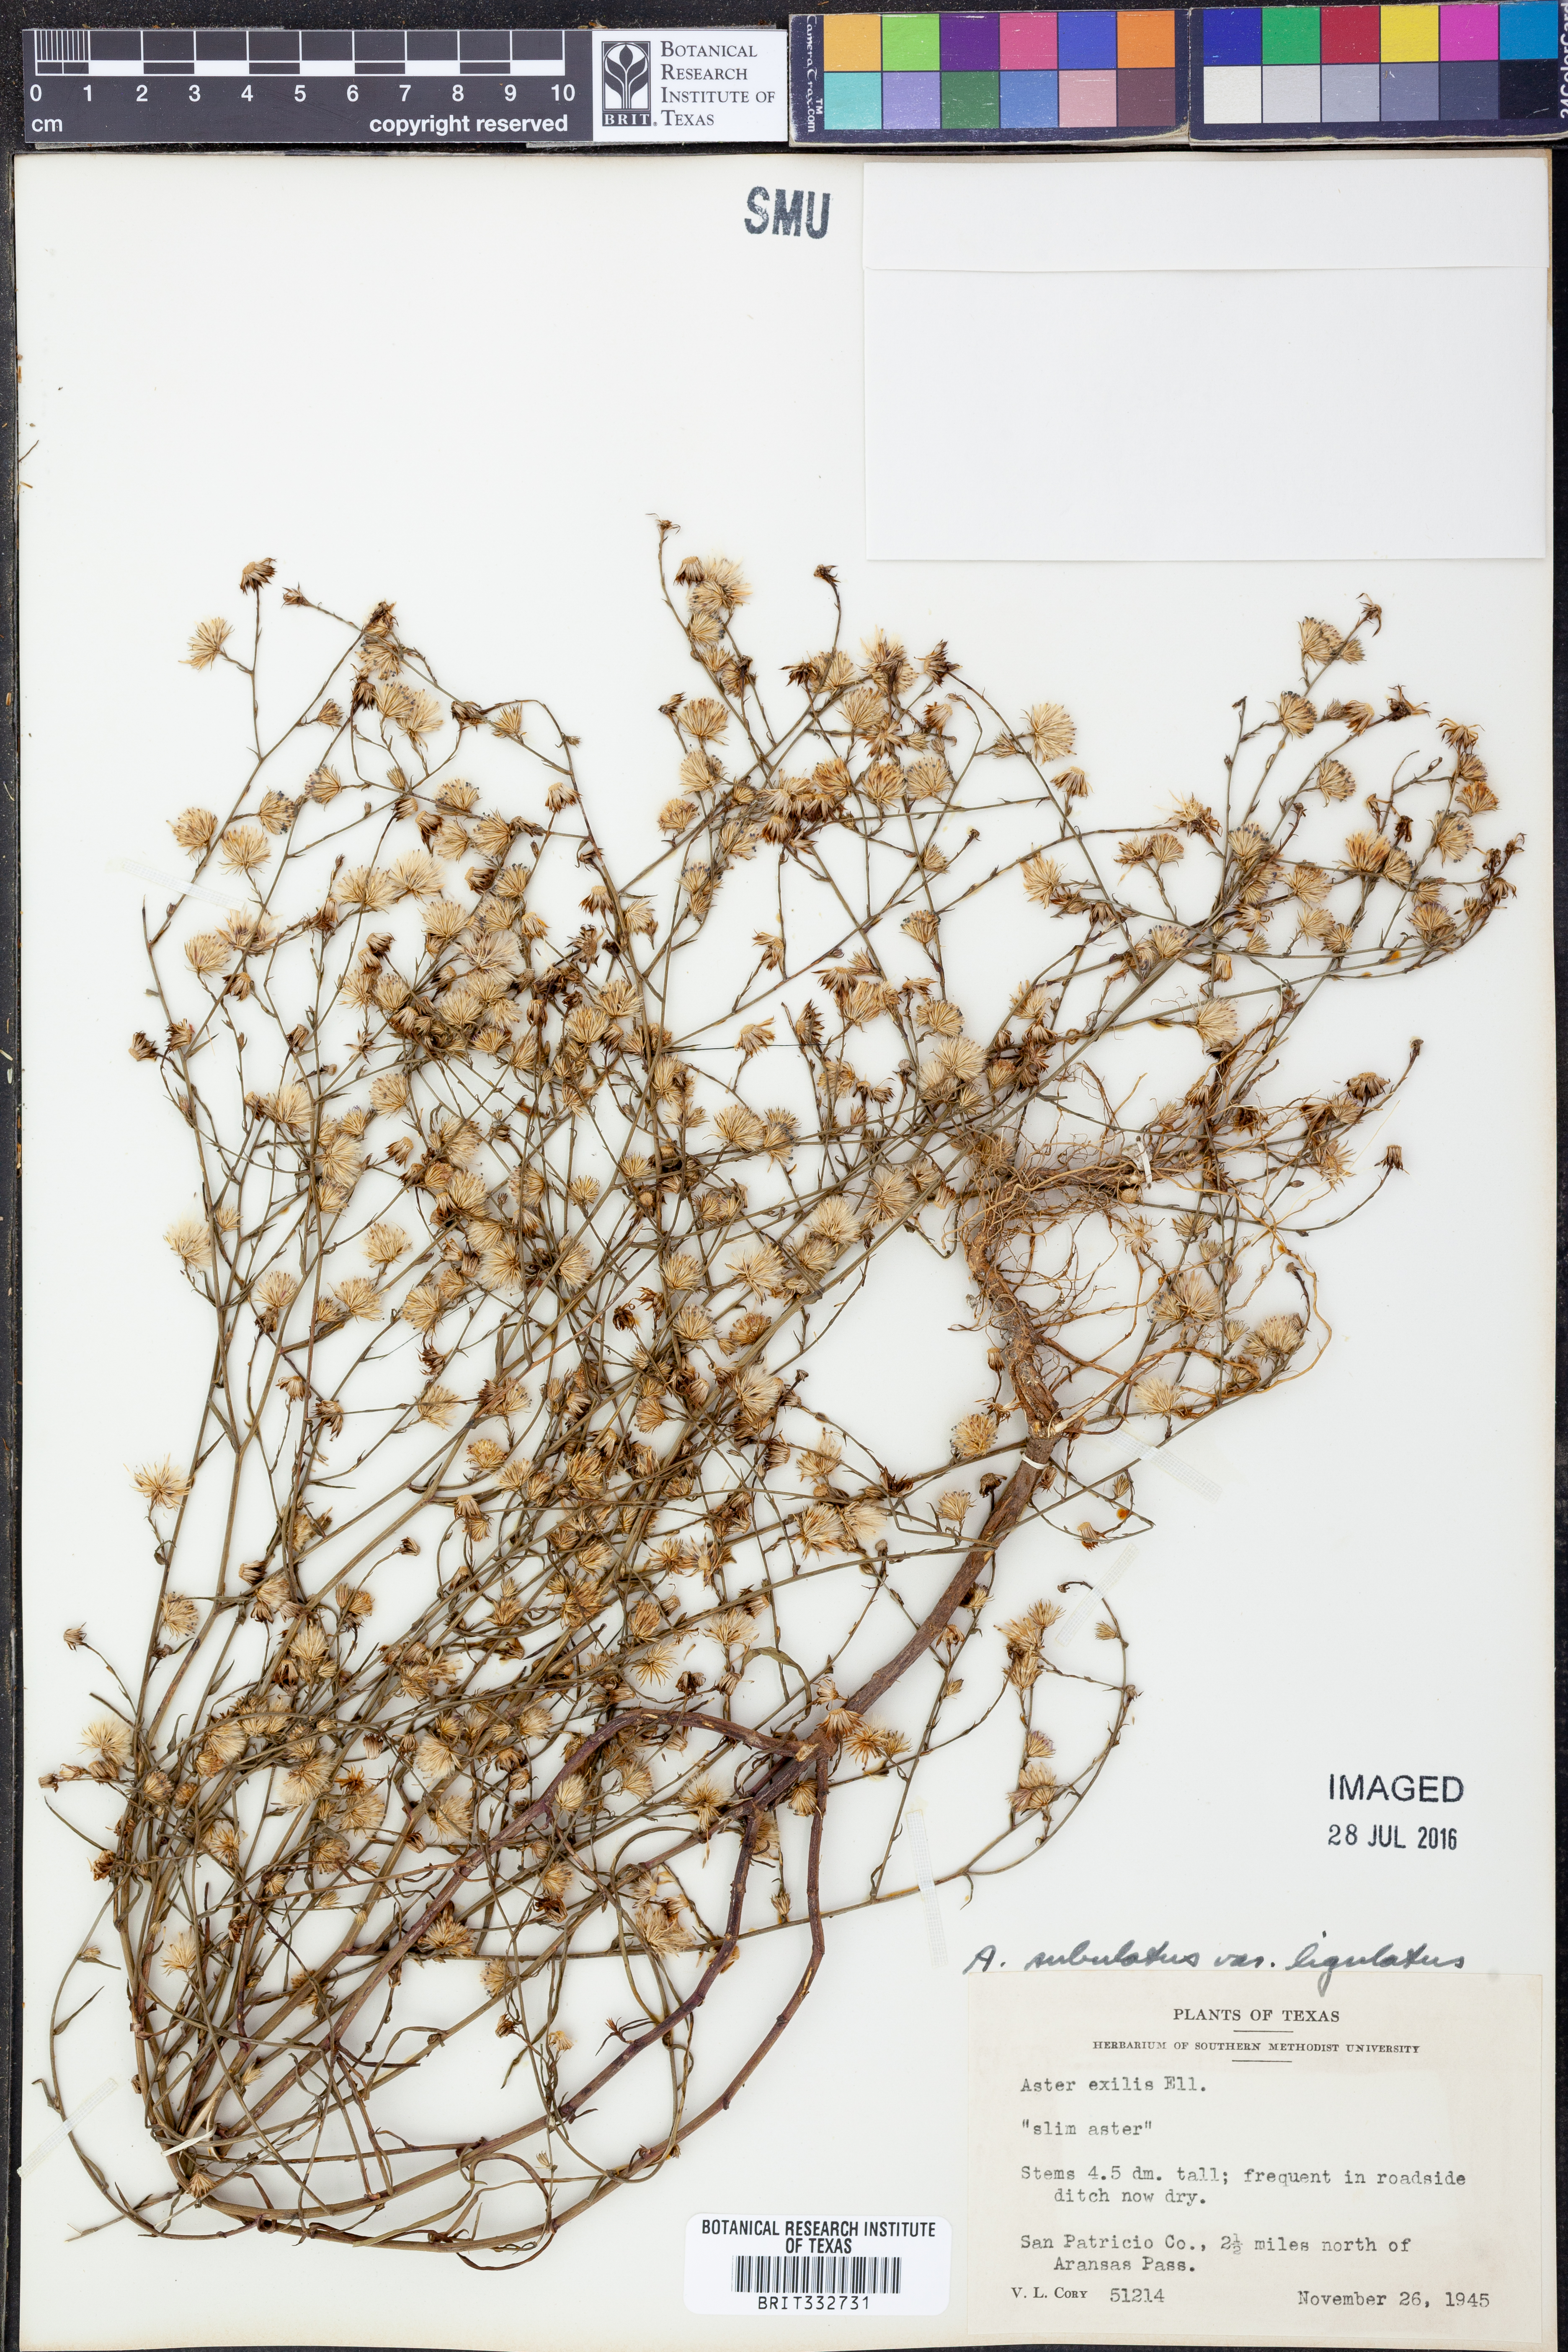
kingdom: Plantae
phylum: Tracheophyta
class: Magnoliopsida
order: Asterales
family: Asteraceae
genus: Symphyotrichum
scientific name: Symphyotrichum divaricatum
